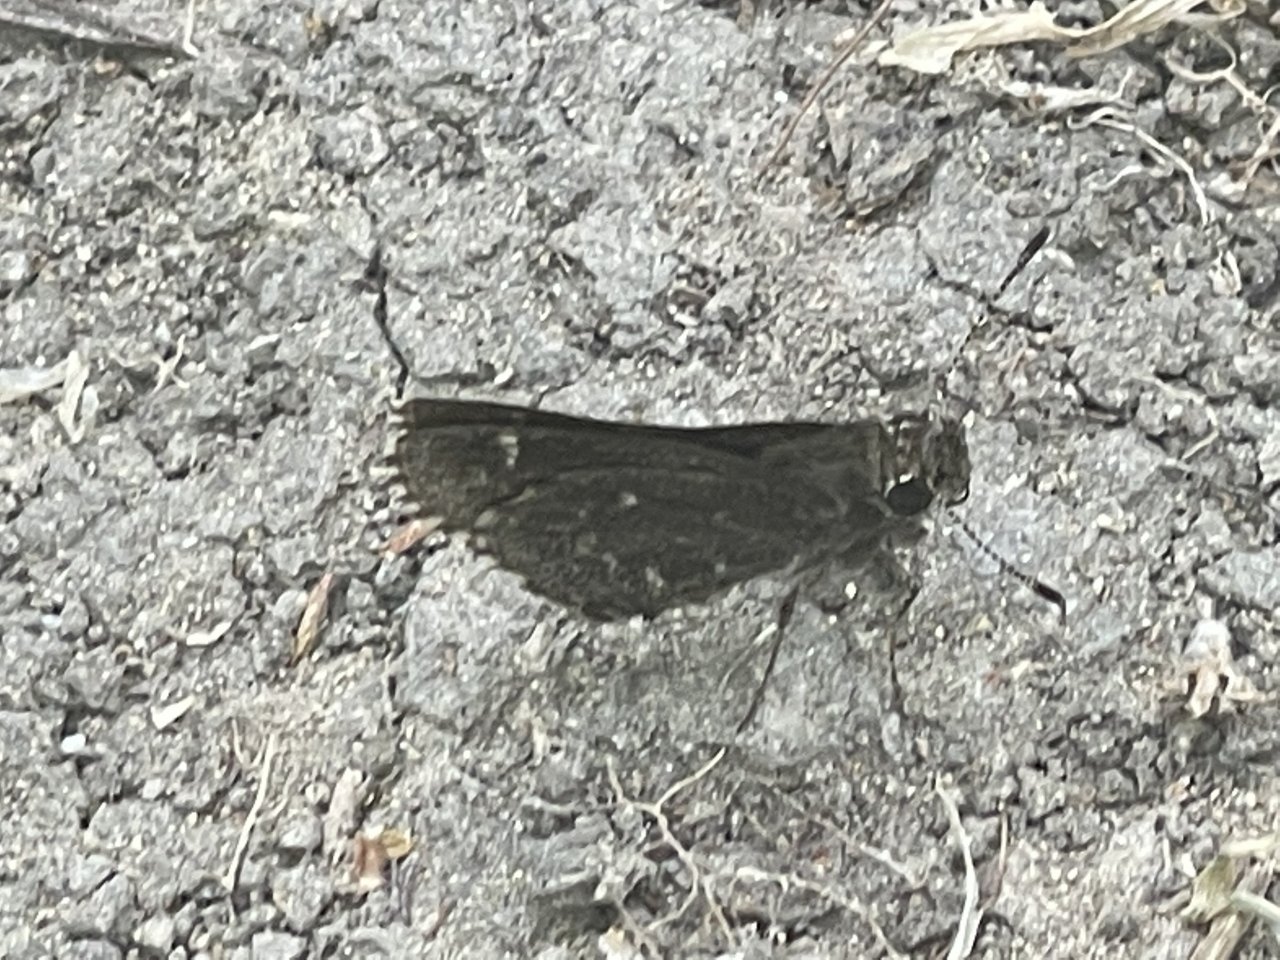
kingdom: Animalia
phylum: Arthropoda
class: Insecta
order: Lepidoptera
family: Hesperiidae
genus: Mastor
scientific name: Mastor celia
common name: Celia's Roadside-Skipper
